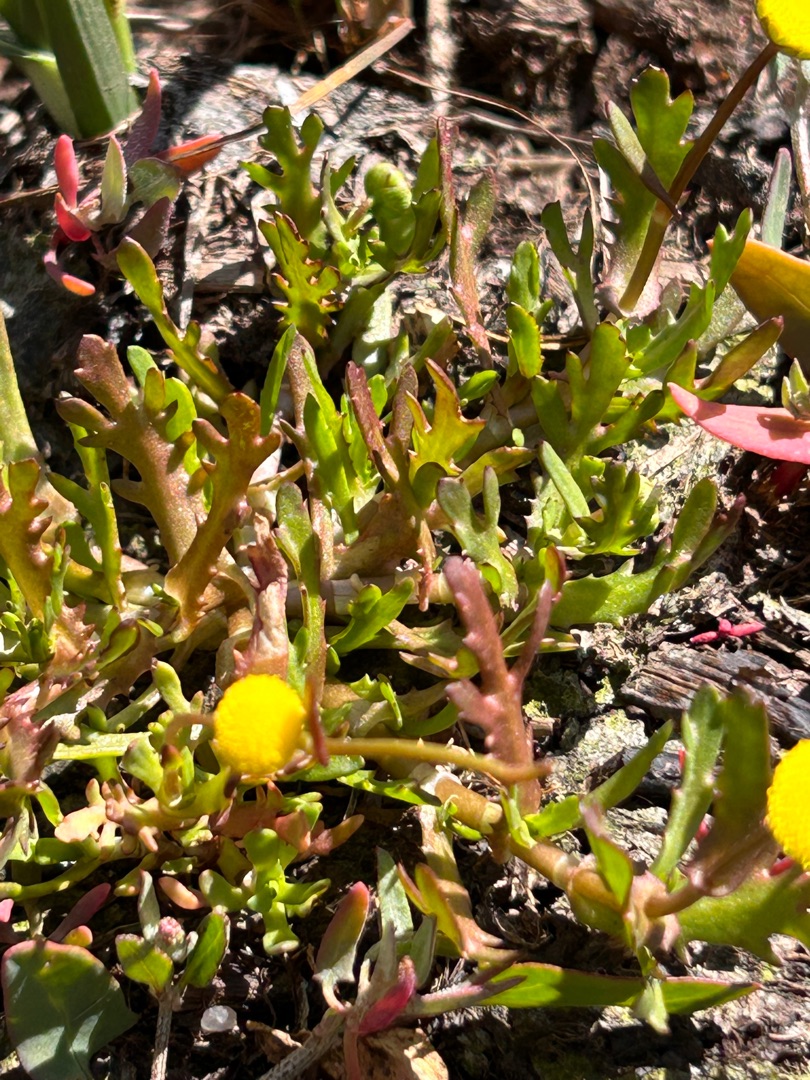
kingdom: Plantae
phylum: Tracheophyta
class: Magnoliopsida
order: Asterales
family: Asteraceae
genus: Cotula
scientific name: Cotula coronopifolia
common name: Firkløft
